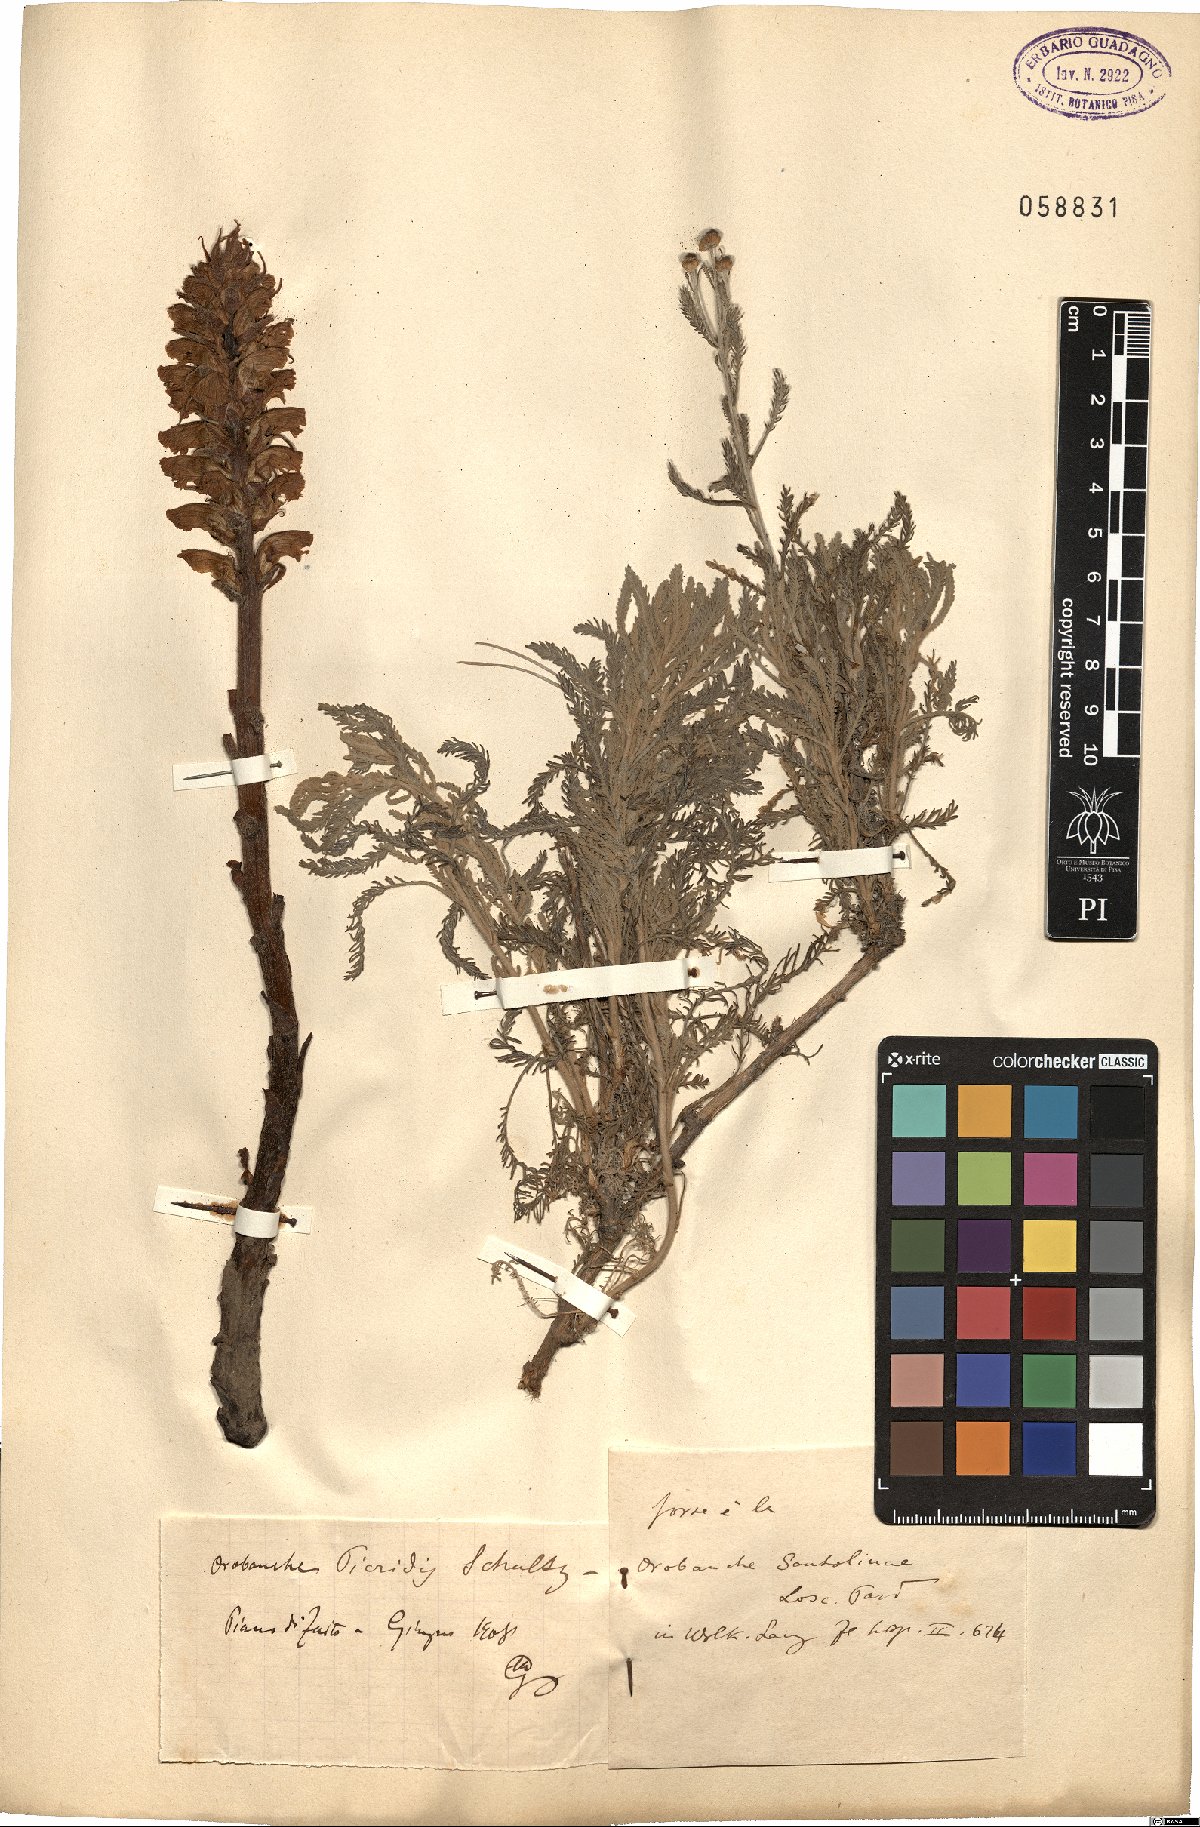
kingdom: Plantae
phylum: Tracheophyta
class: Magnoliopsida
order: Lamiales
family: Orobanchaceae
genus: Orobanche
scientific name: Orobanche picridis
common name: Oxtongue broomrape
